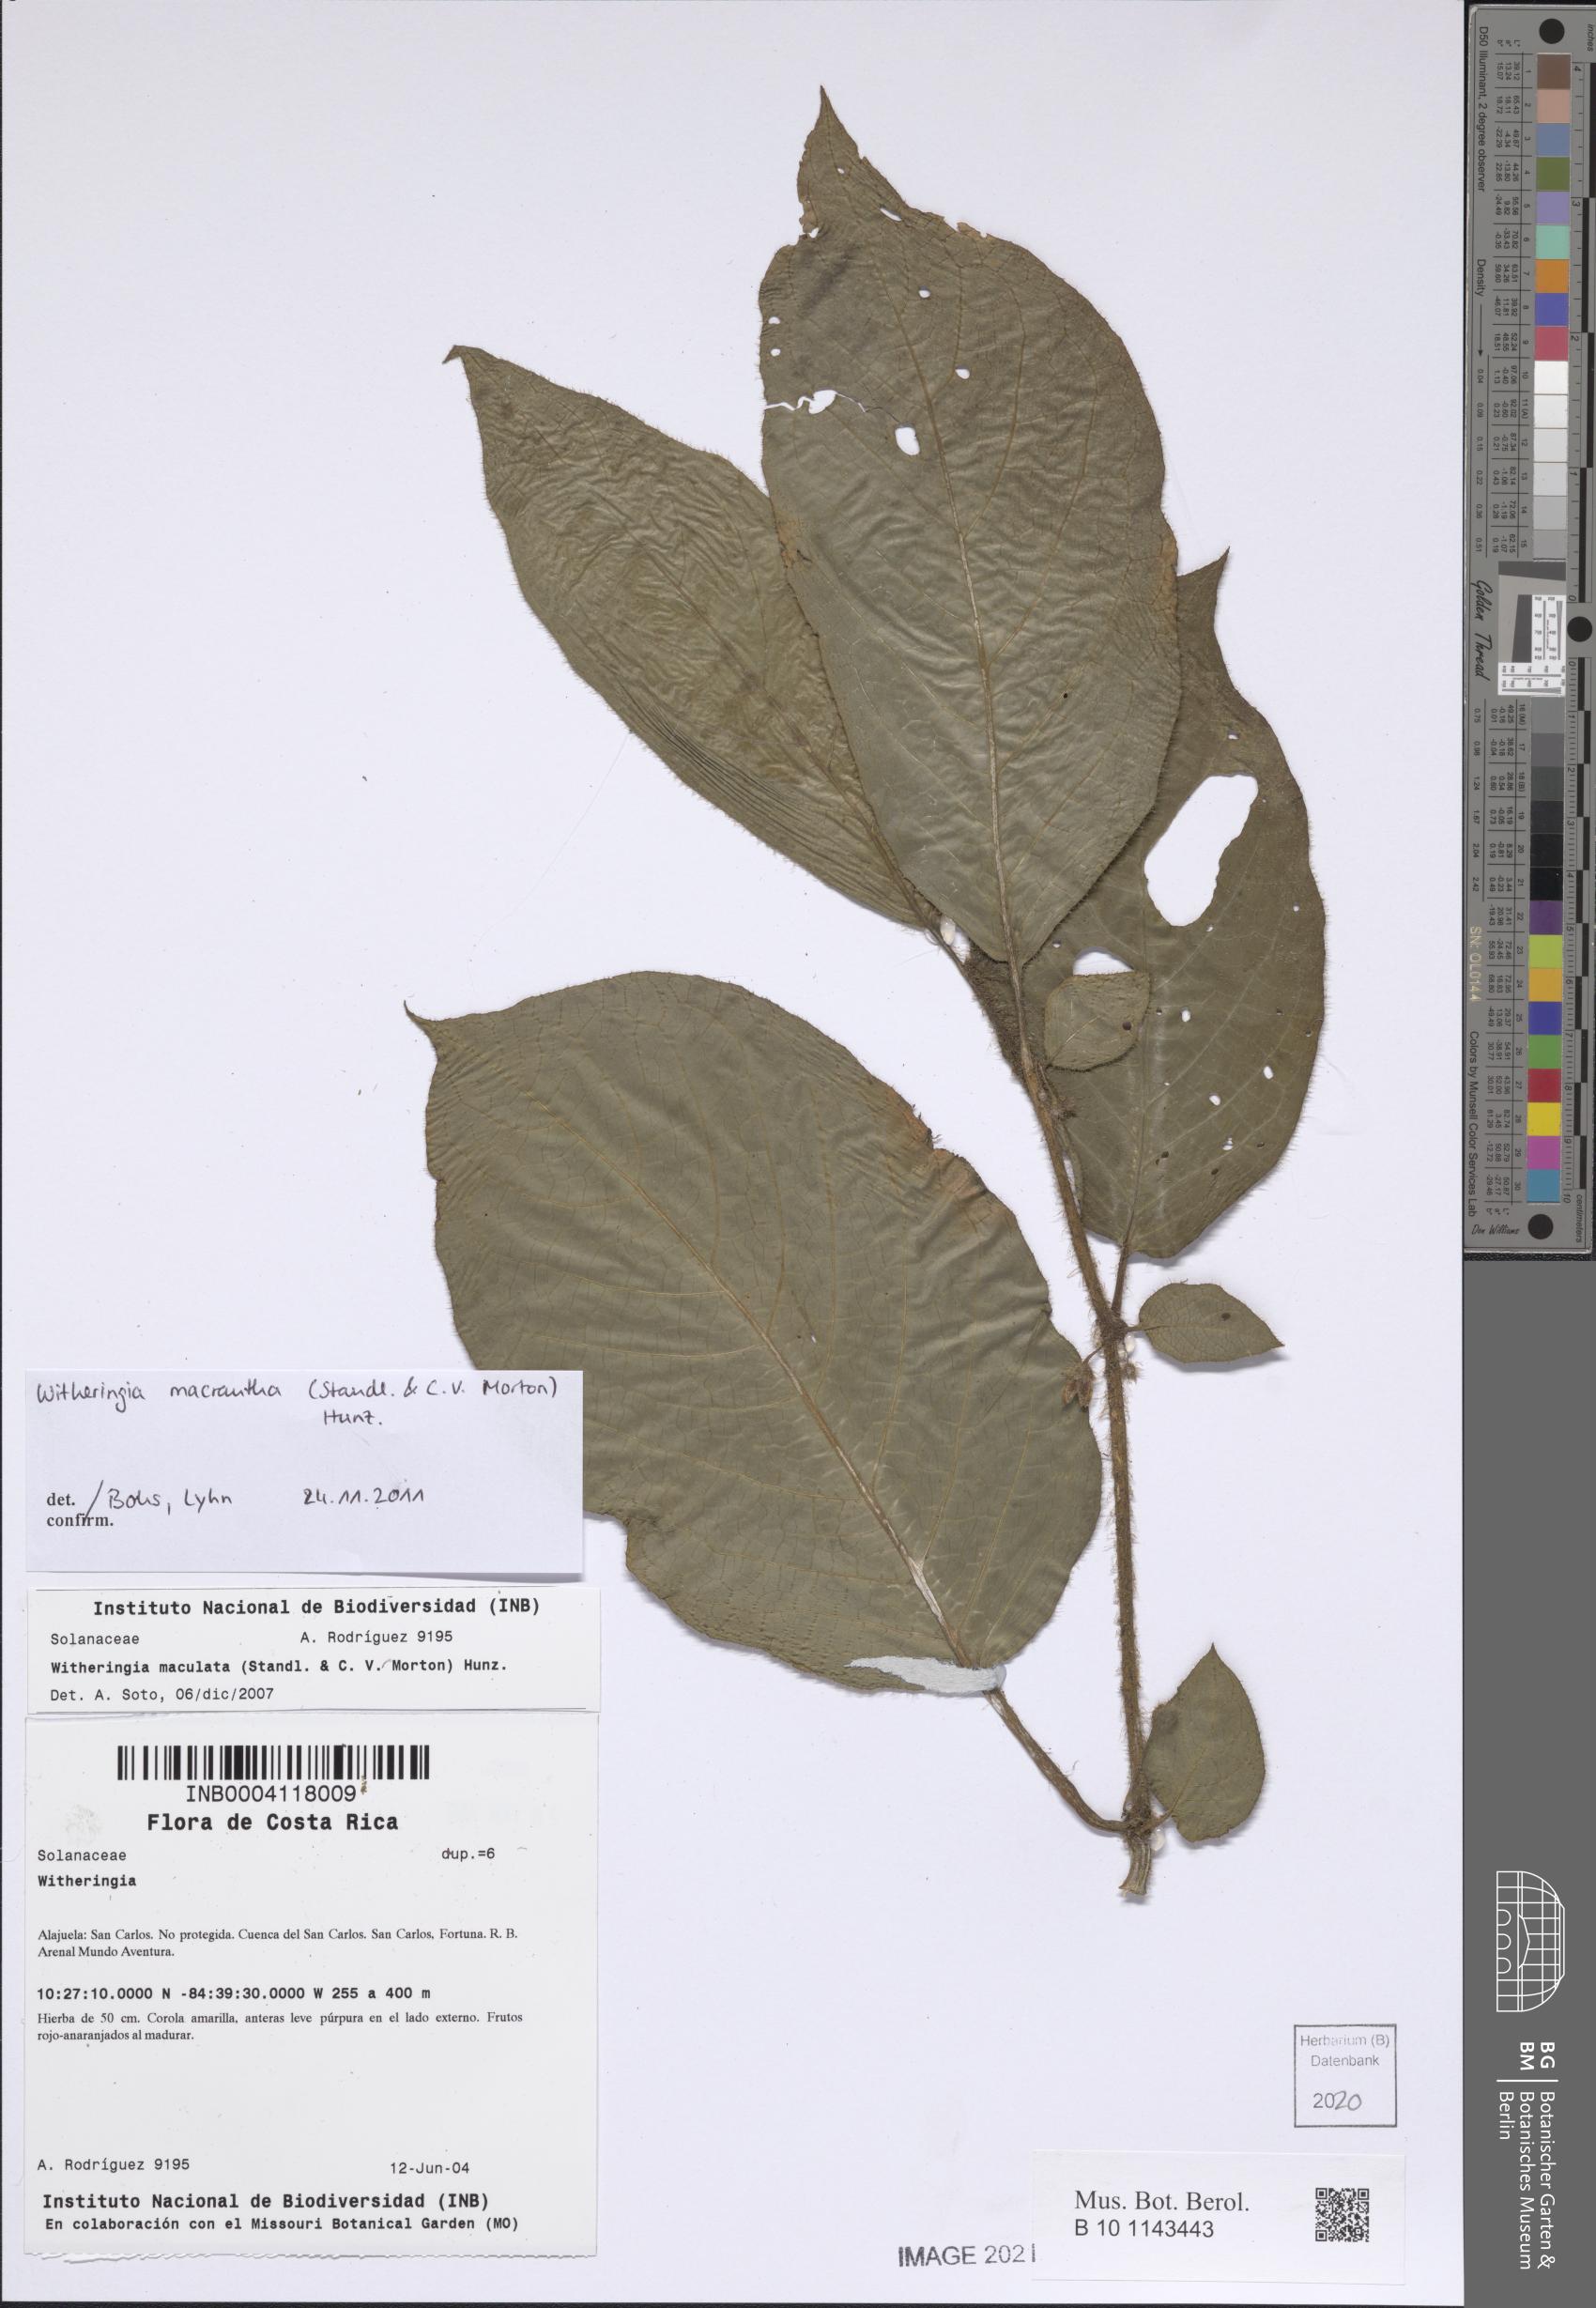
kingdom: Plantae
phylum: Tracheophyta
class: Magnoliopsida
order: Solanales
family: Solanaceae
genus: Witheringia
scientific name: Witheringia maculata
